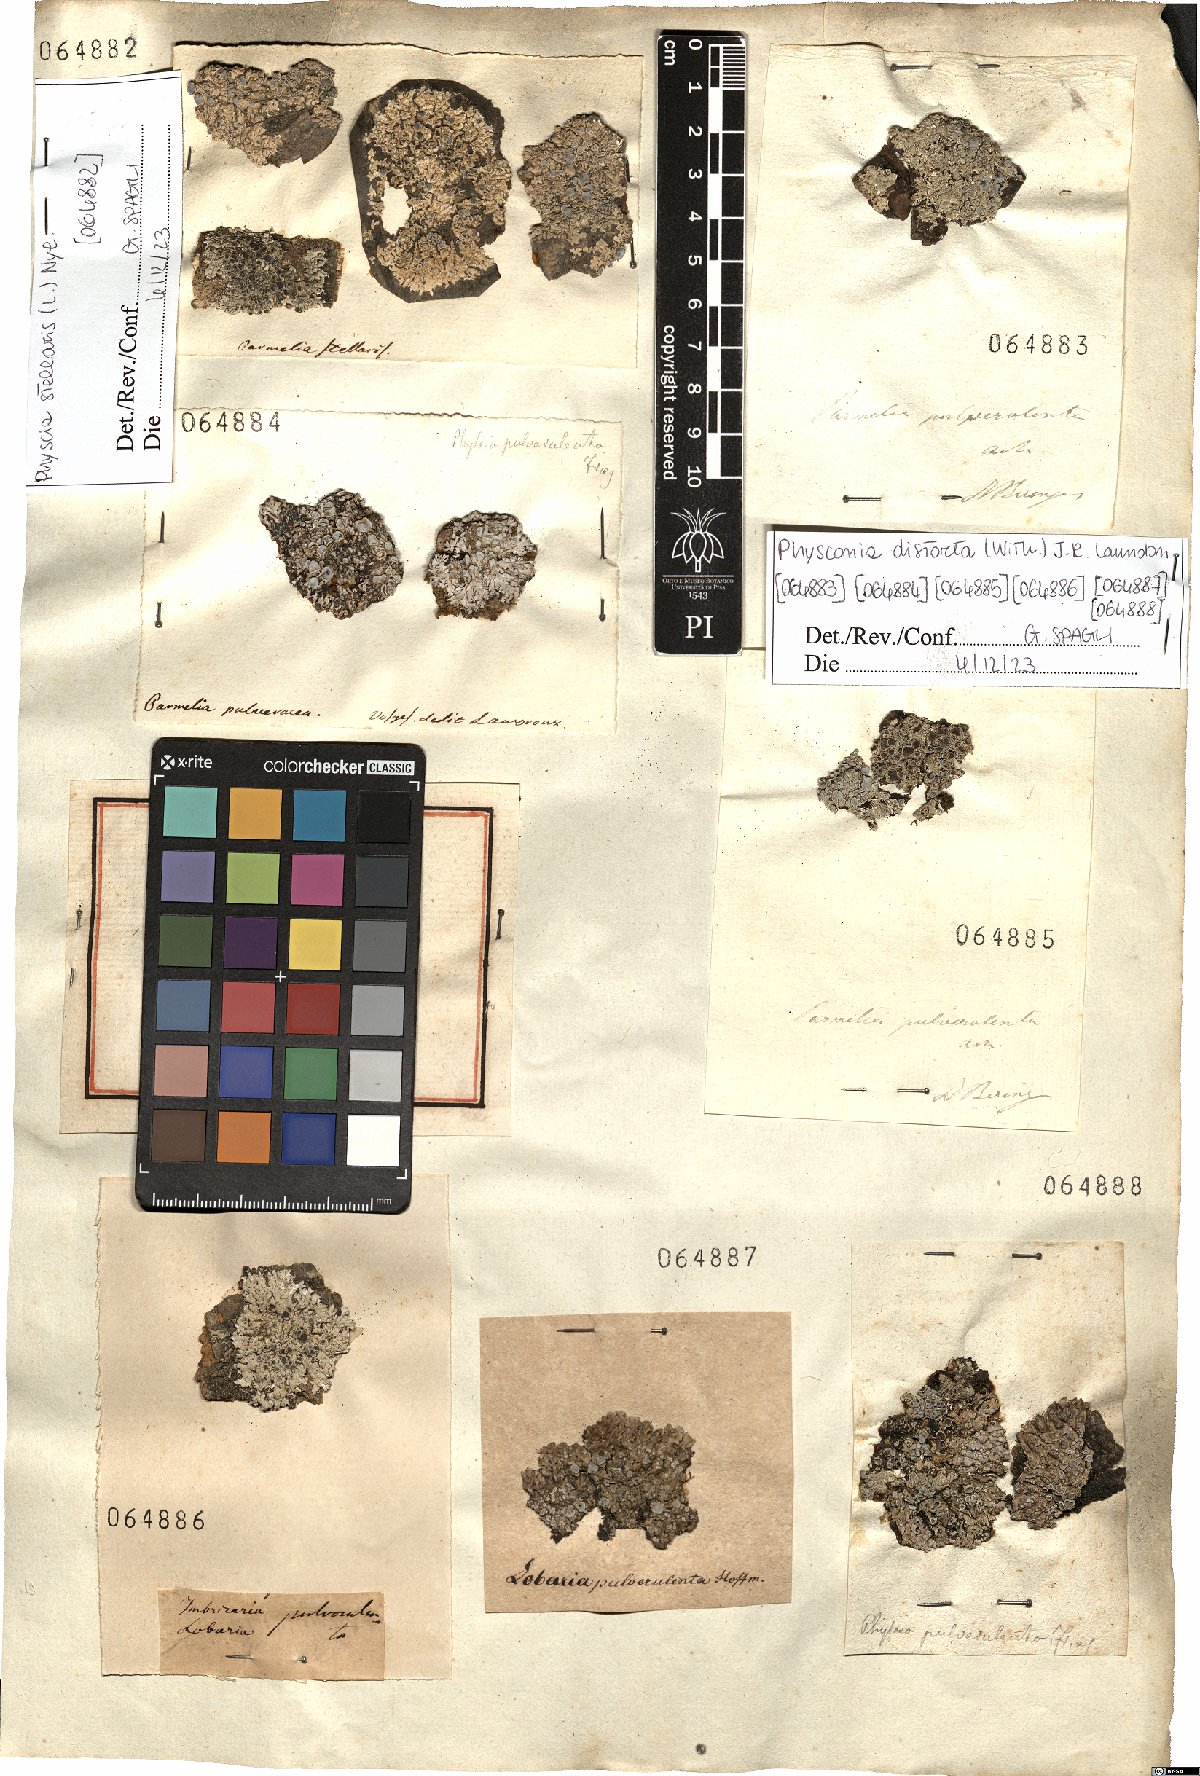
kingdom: Fungi
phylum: Ascomycota
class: Lecanoromycetes
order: Caliciales
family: Physciaceae
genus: Physcia
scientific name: Physcia stellaris
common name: Star rosette lichen
